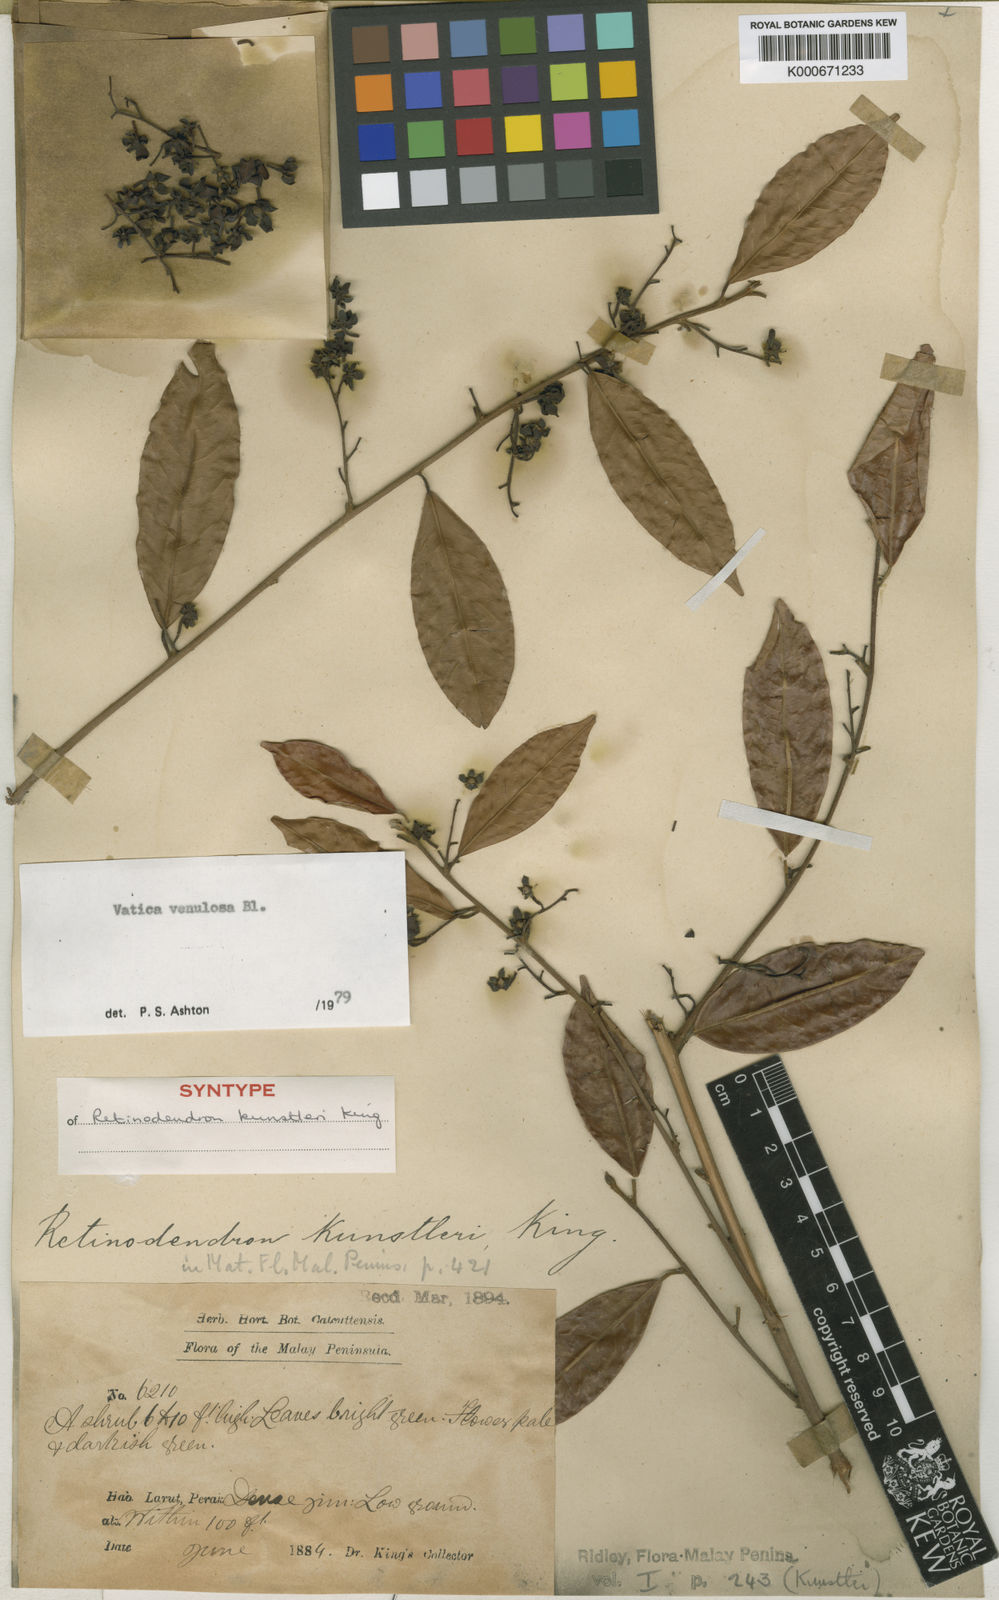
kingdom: Plantae
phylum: Tracheophyta
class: Magnoliopsida
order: Malvales
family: Dipterocarpaceae
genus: Vatica
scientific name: Vatica venulosa
